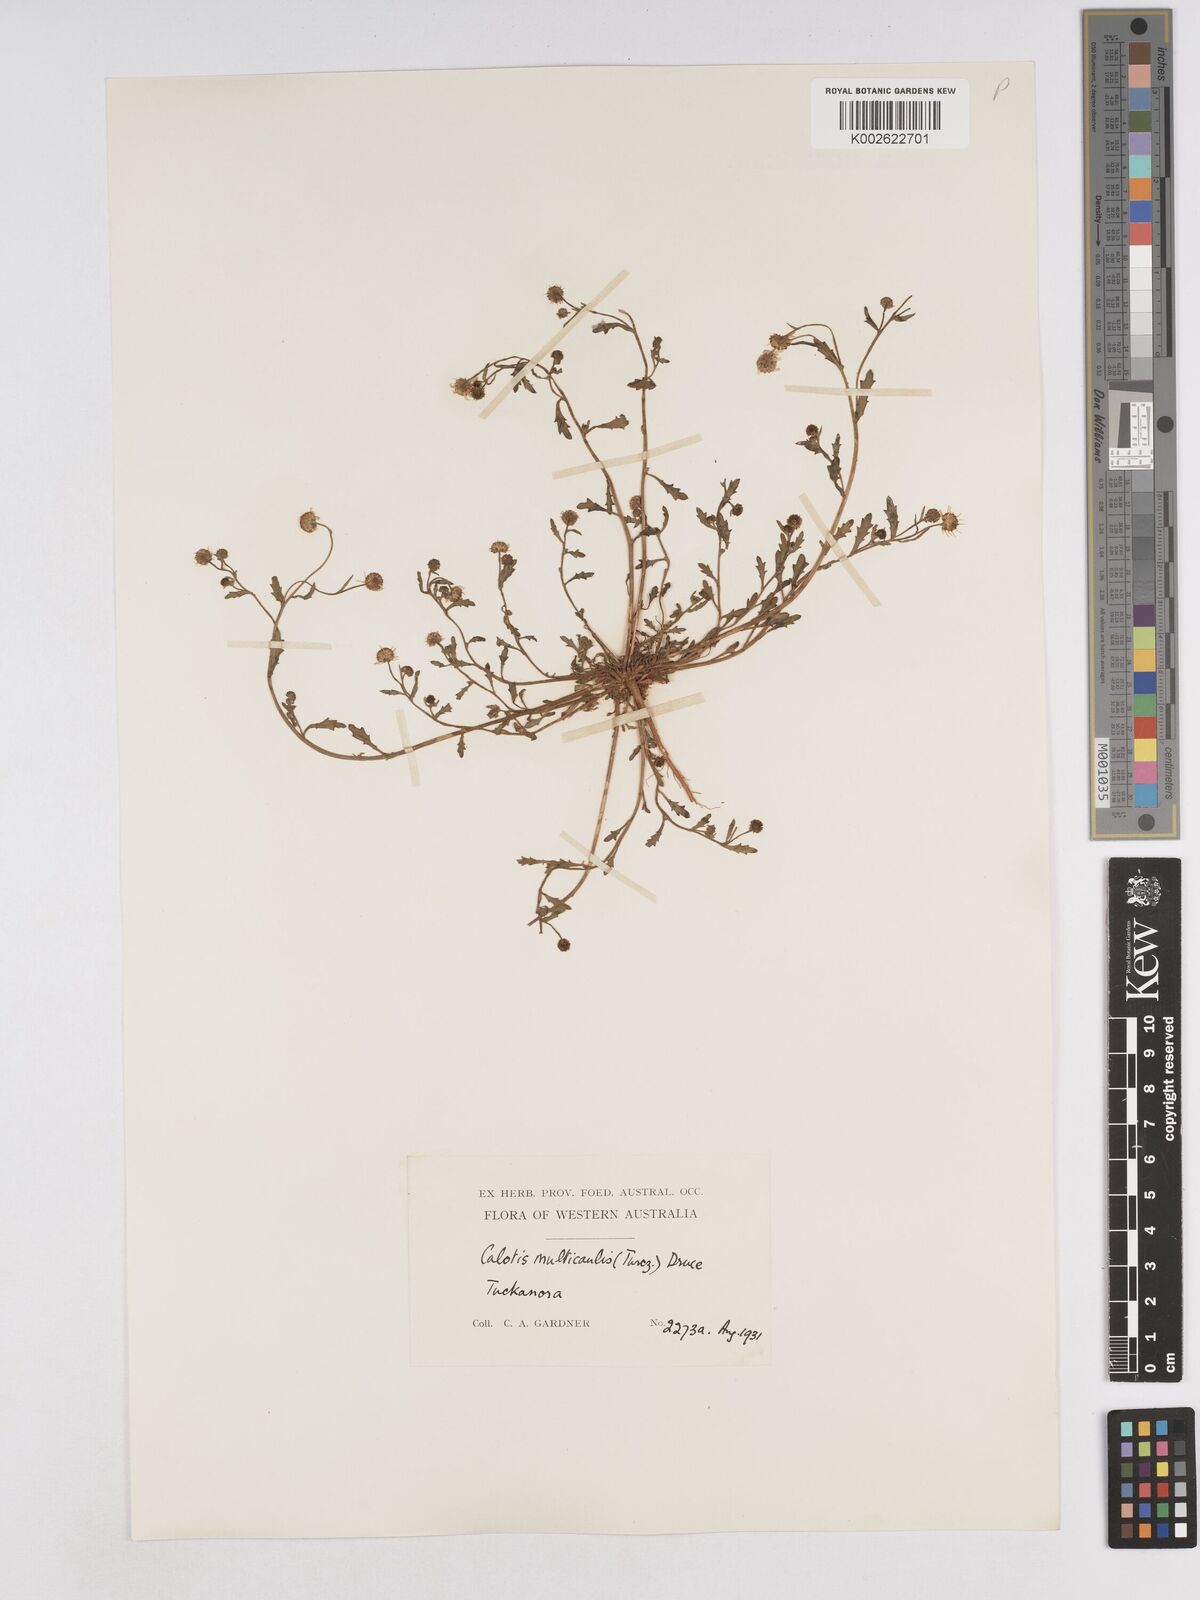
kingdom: Plantae
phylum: Tracheophyta
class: Magnoliopsida
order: Asterales
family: Asteraceae
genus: Calotis
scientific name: Calotis multicaulis
